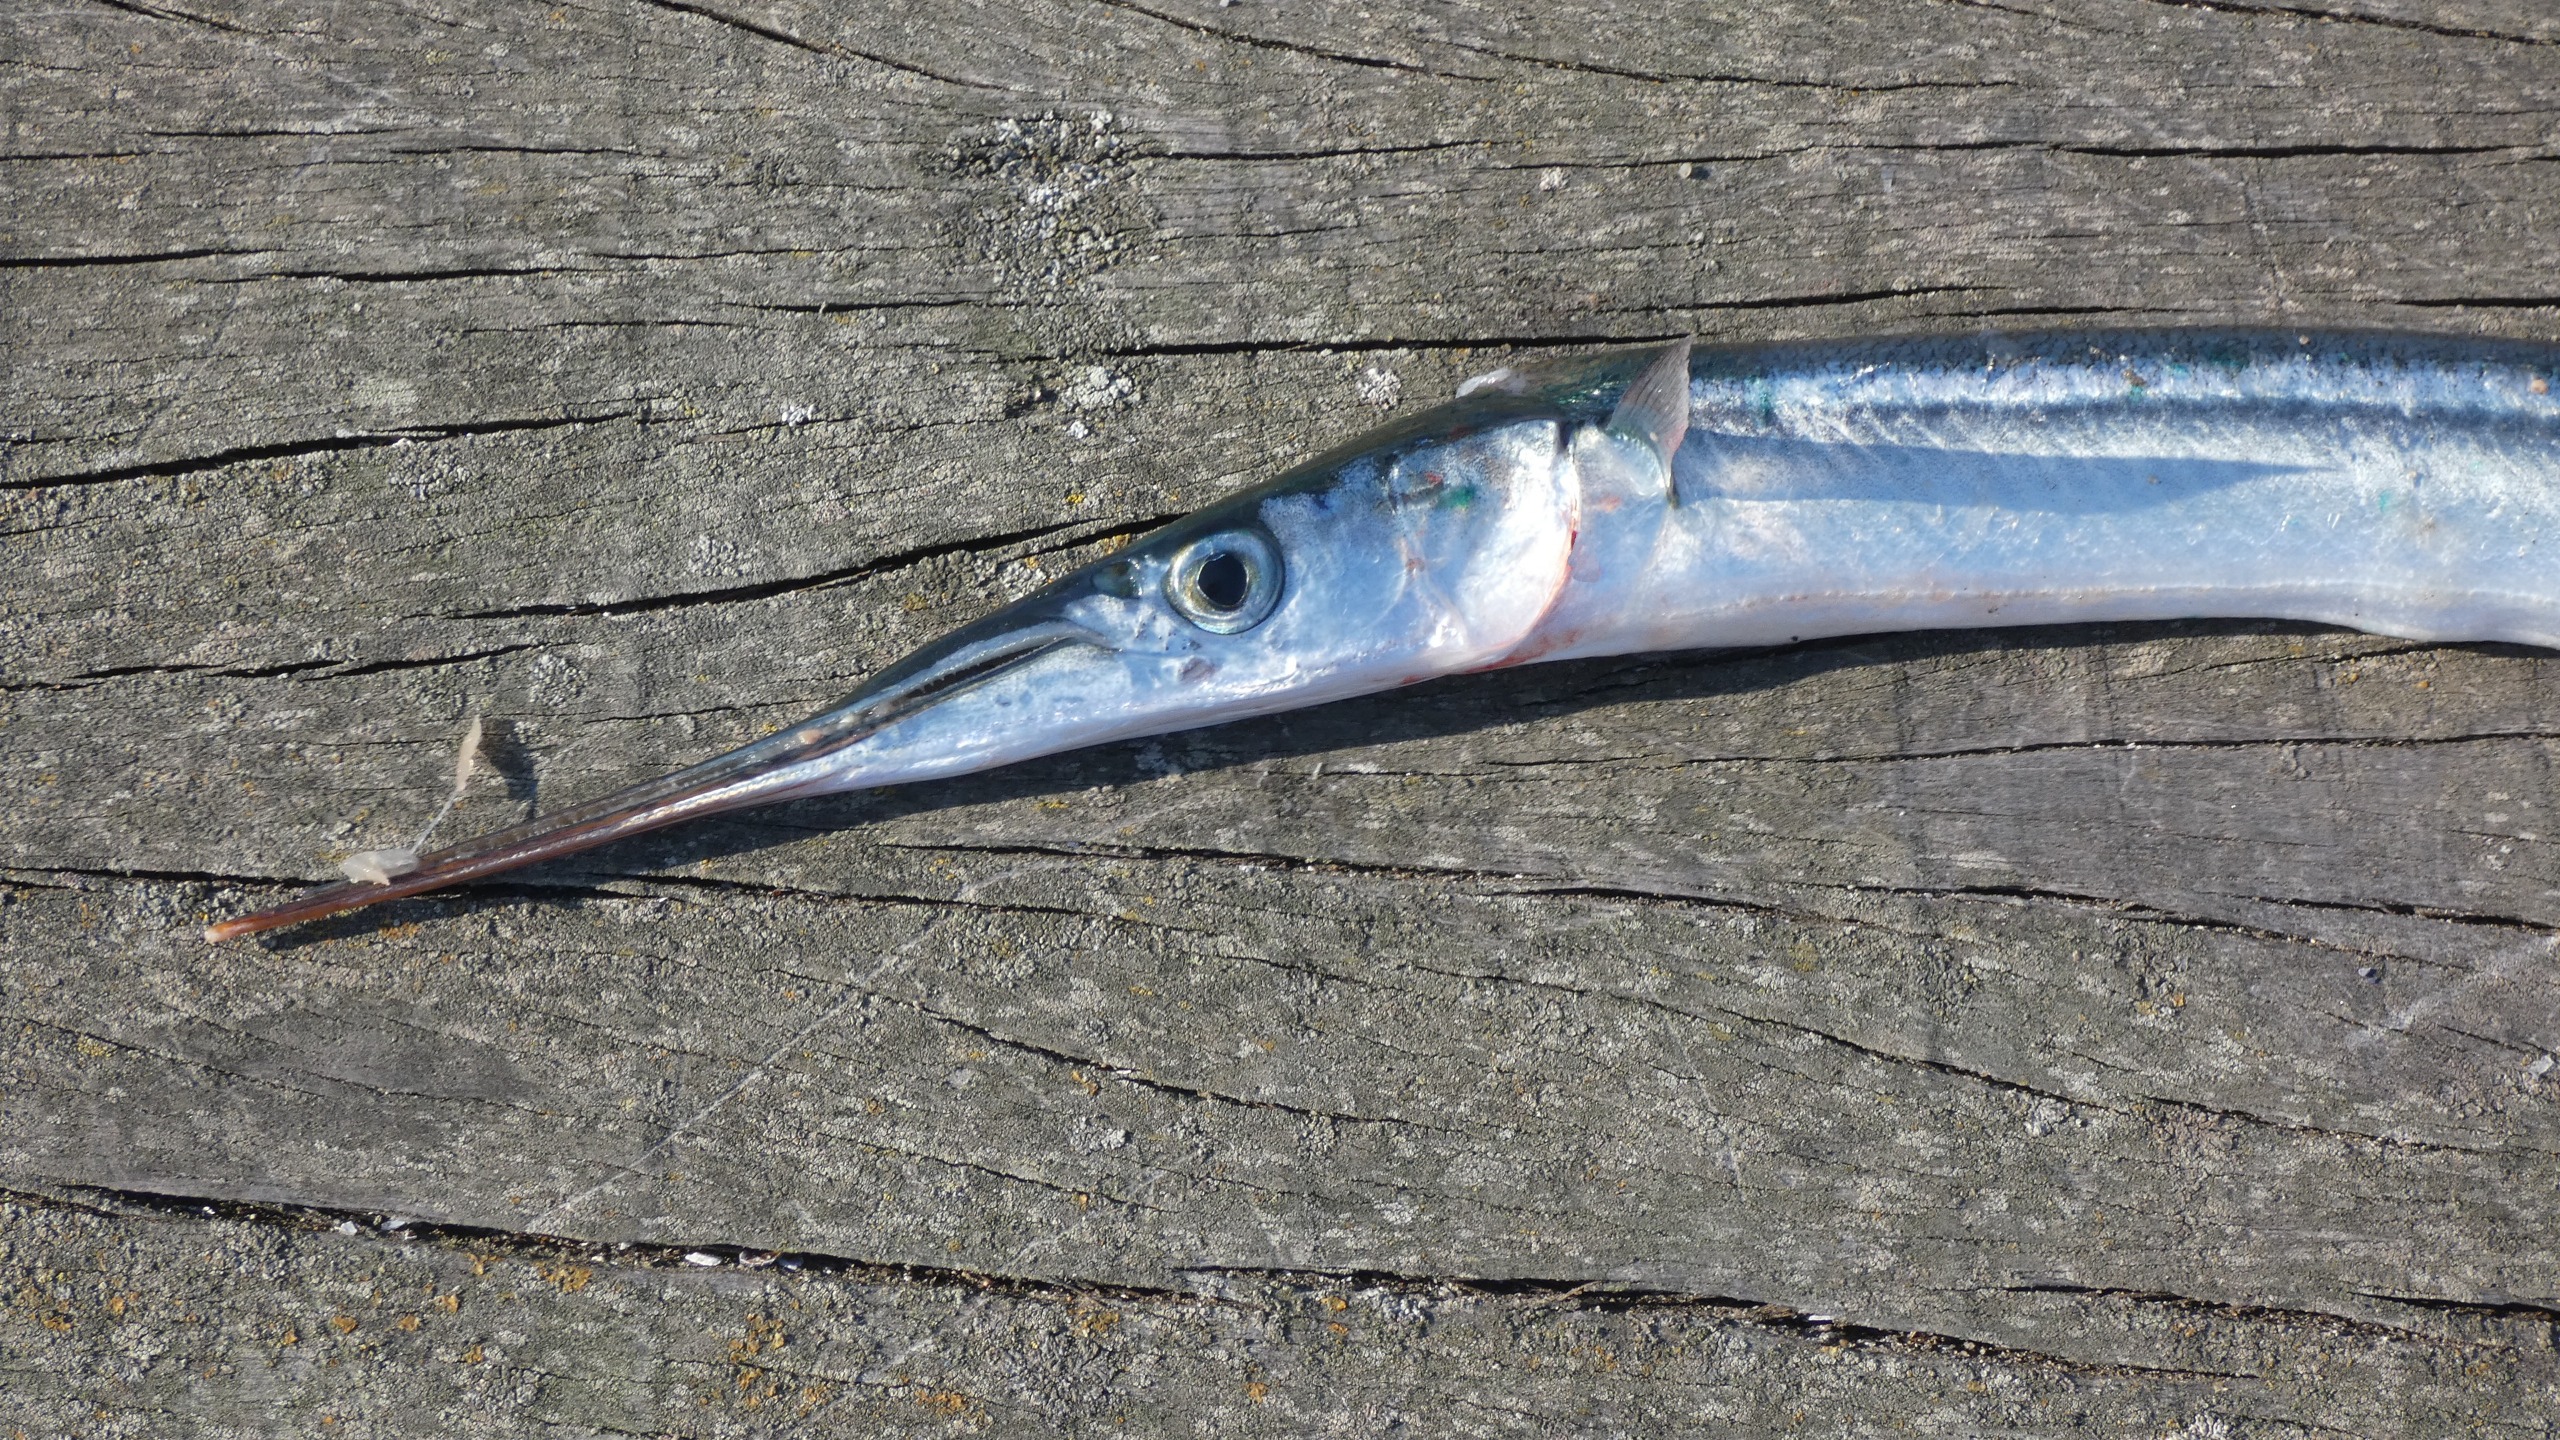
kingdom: Animalia
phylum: Chordata
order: Beloniformes
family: Belonidae
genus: Belone
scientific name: Belone belone
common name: Hornfisk
